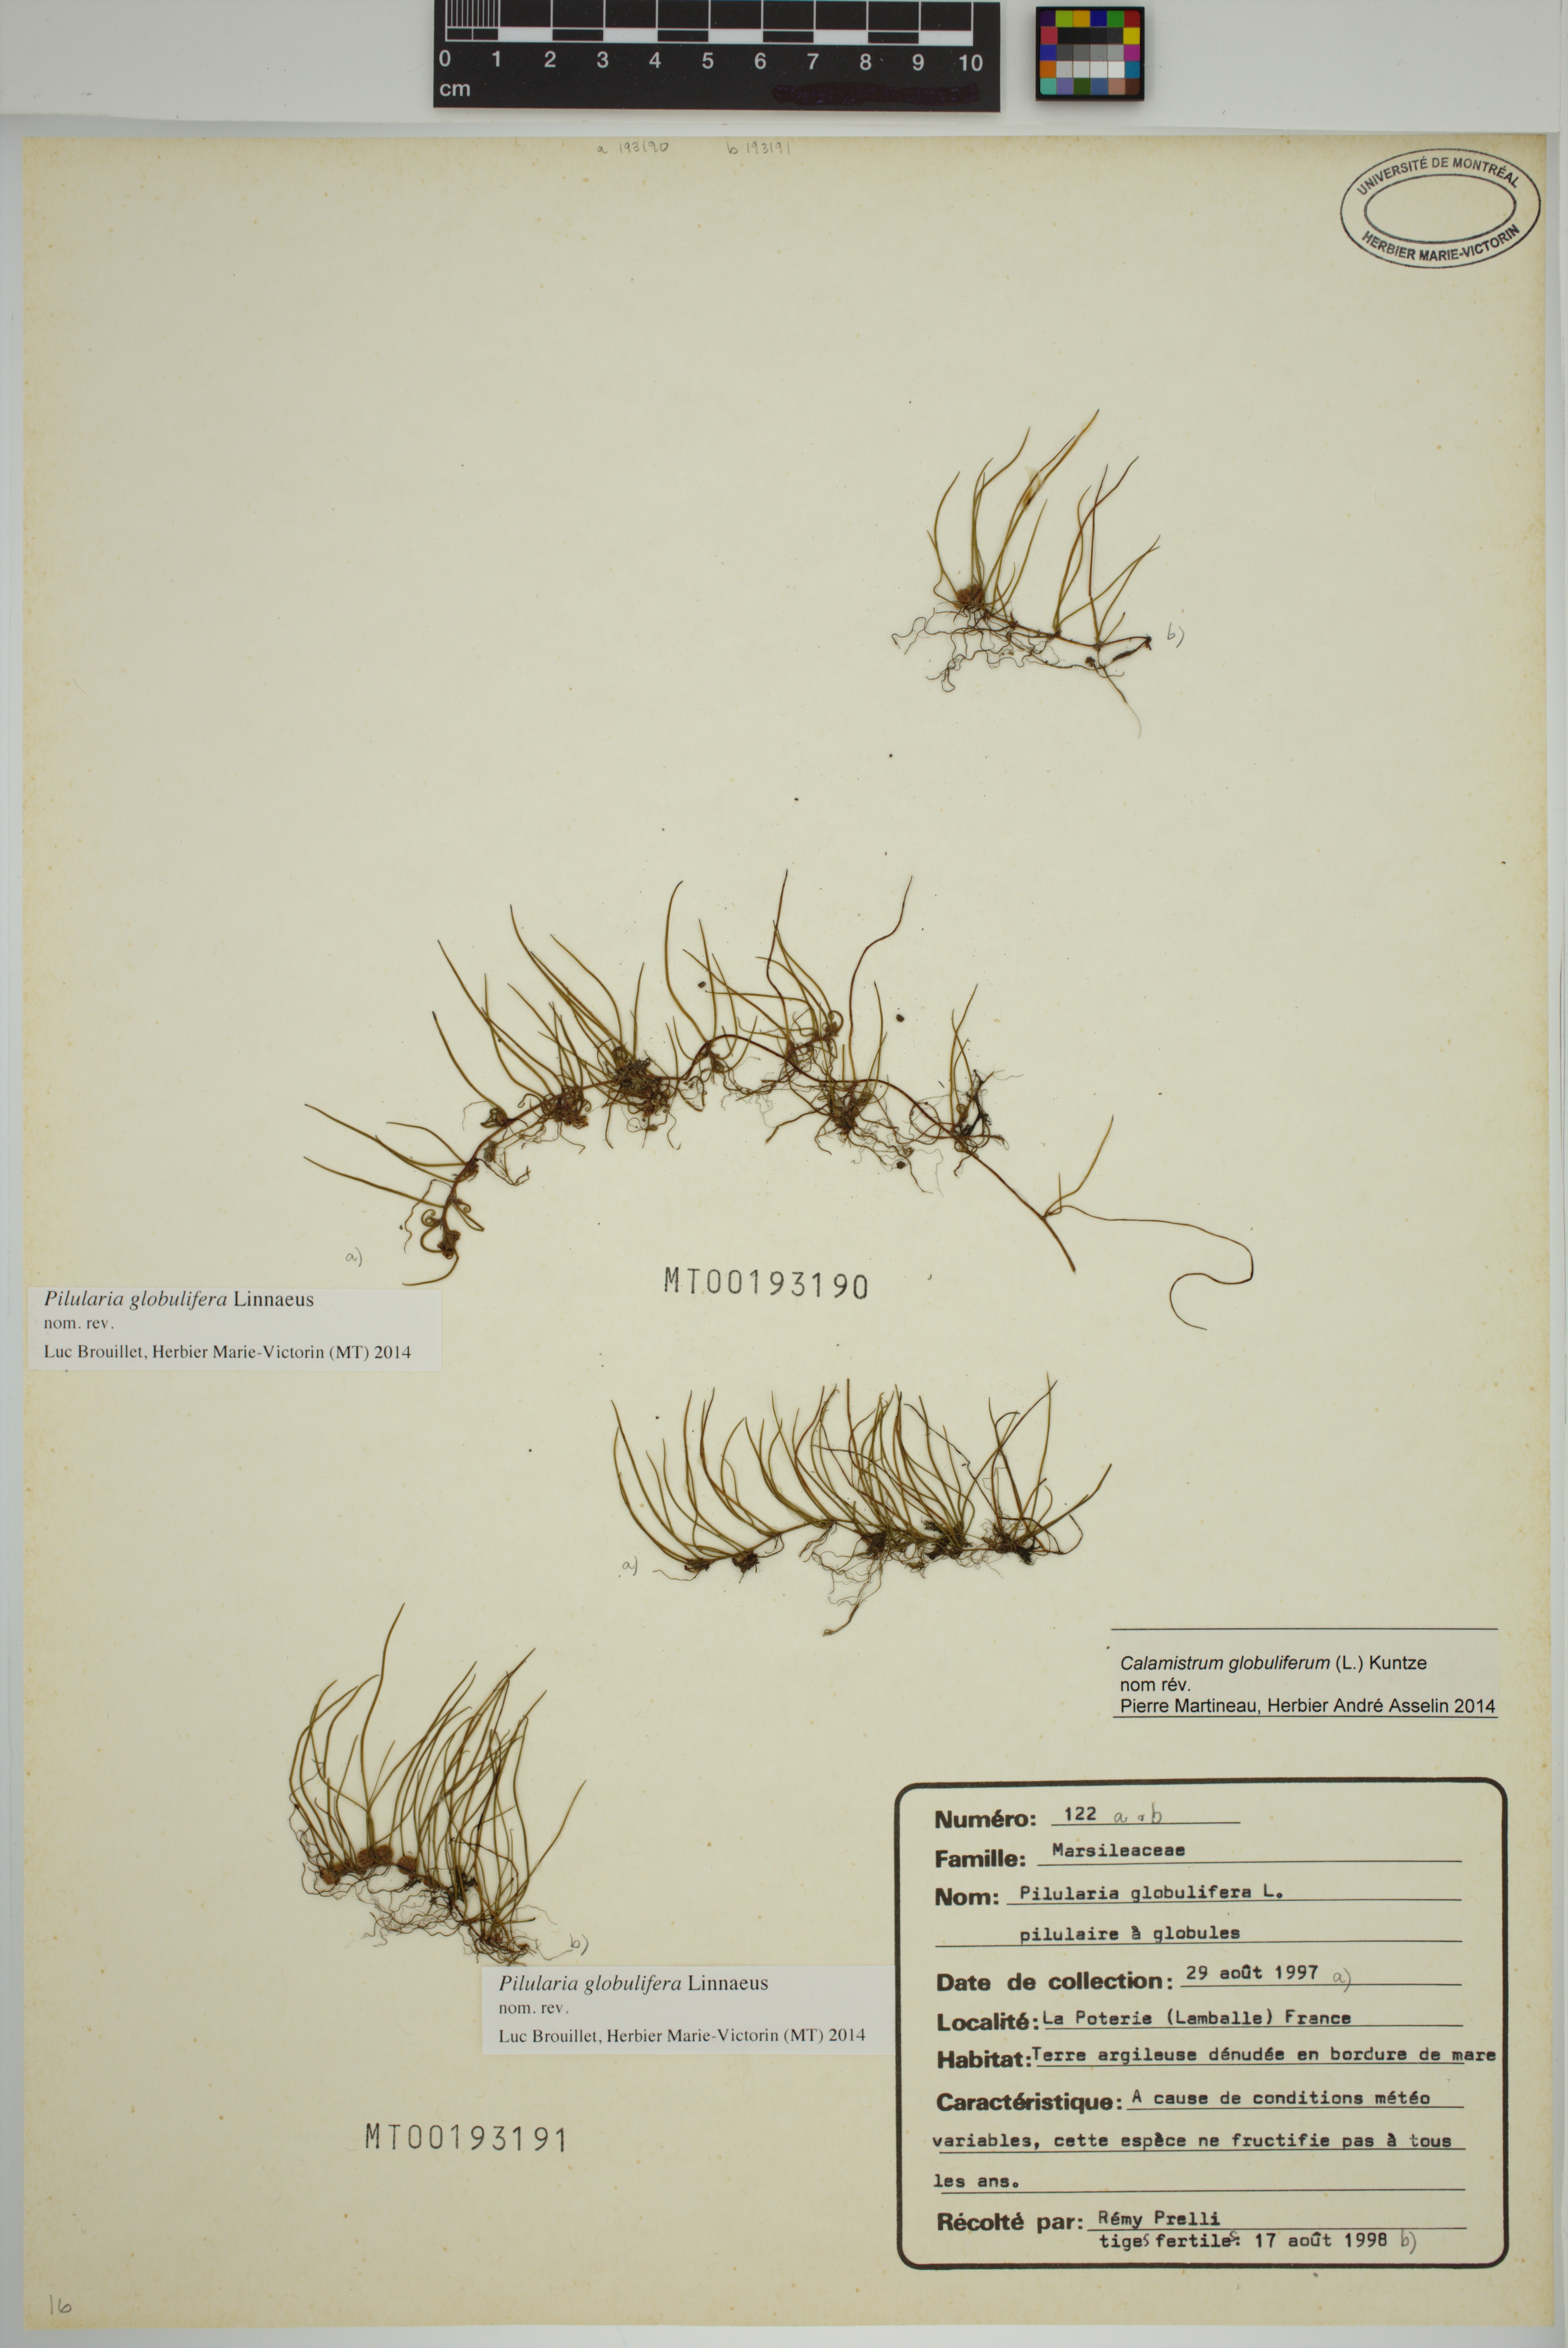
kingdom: Plantae
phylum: Tracheophyta
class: Polypodiopsida
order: Salviniales
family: Marsileaceae
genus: Pilularia
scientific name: Pilularia globulifera
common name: Pillwort
